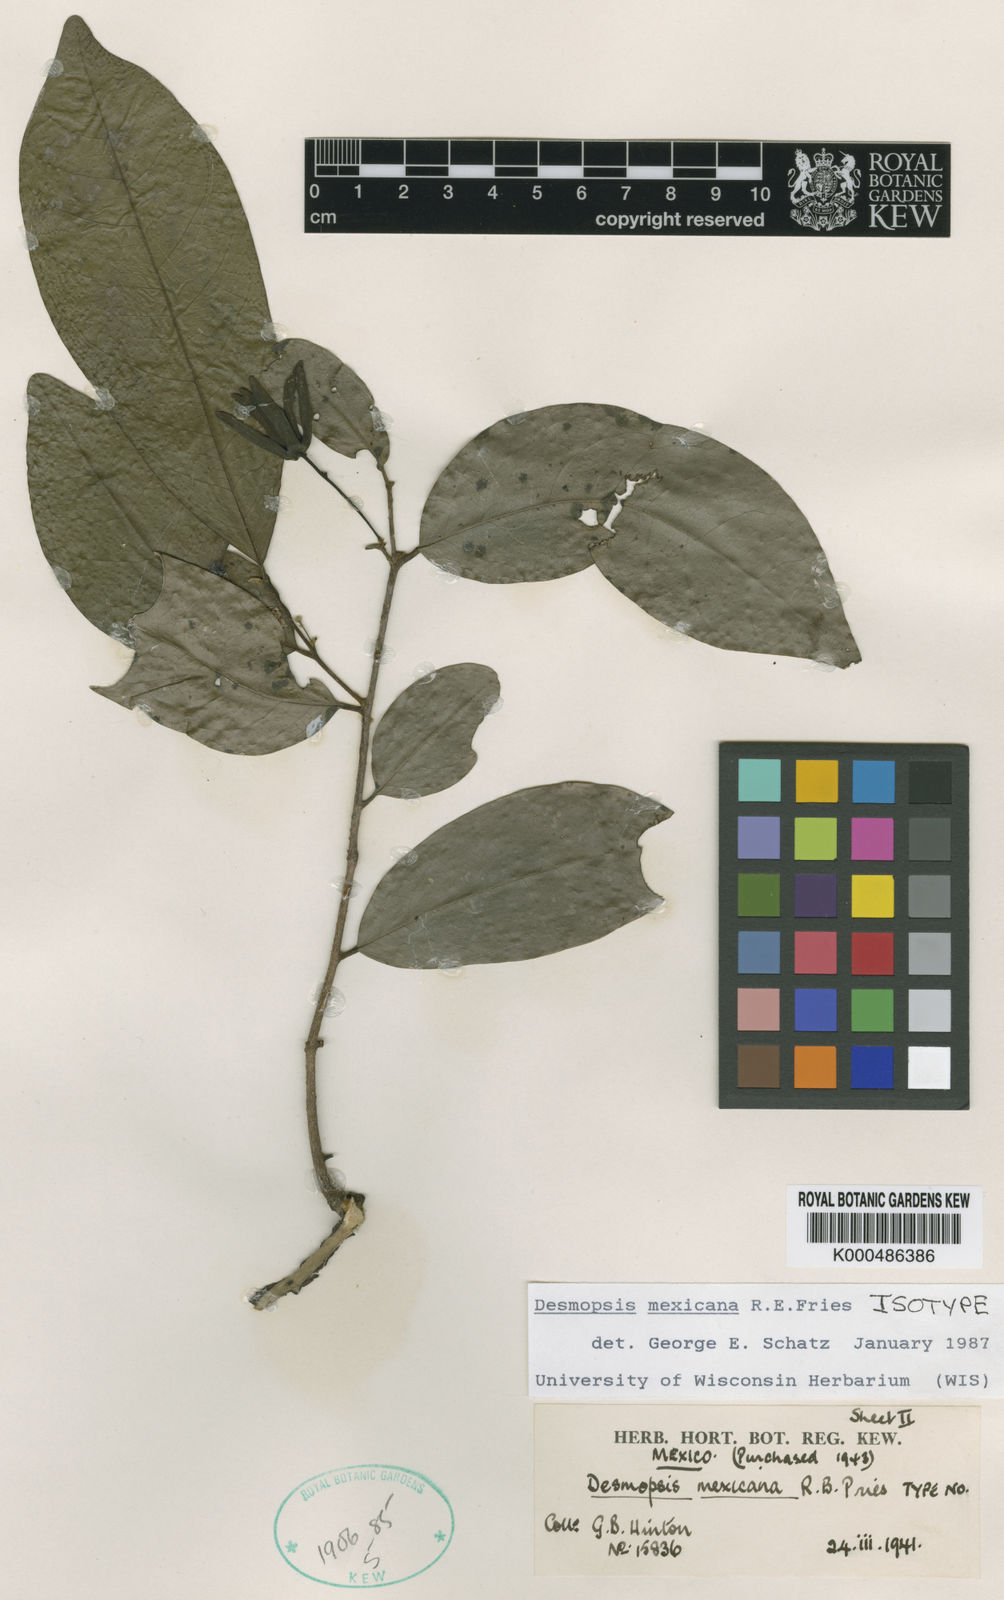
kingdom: Plantae
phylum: Tracheophyta
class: Magnoliopsida
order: Magnoliales
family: Annonaceae
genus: Desmopsis
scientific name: Desmopsis mexicana
